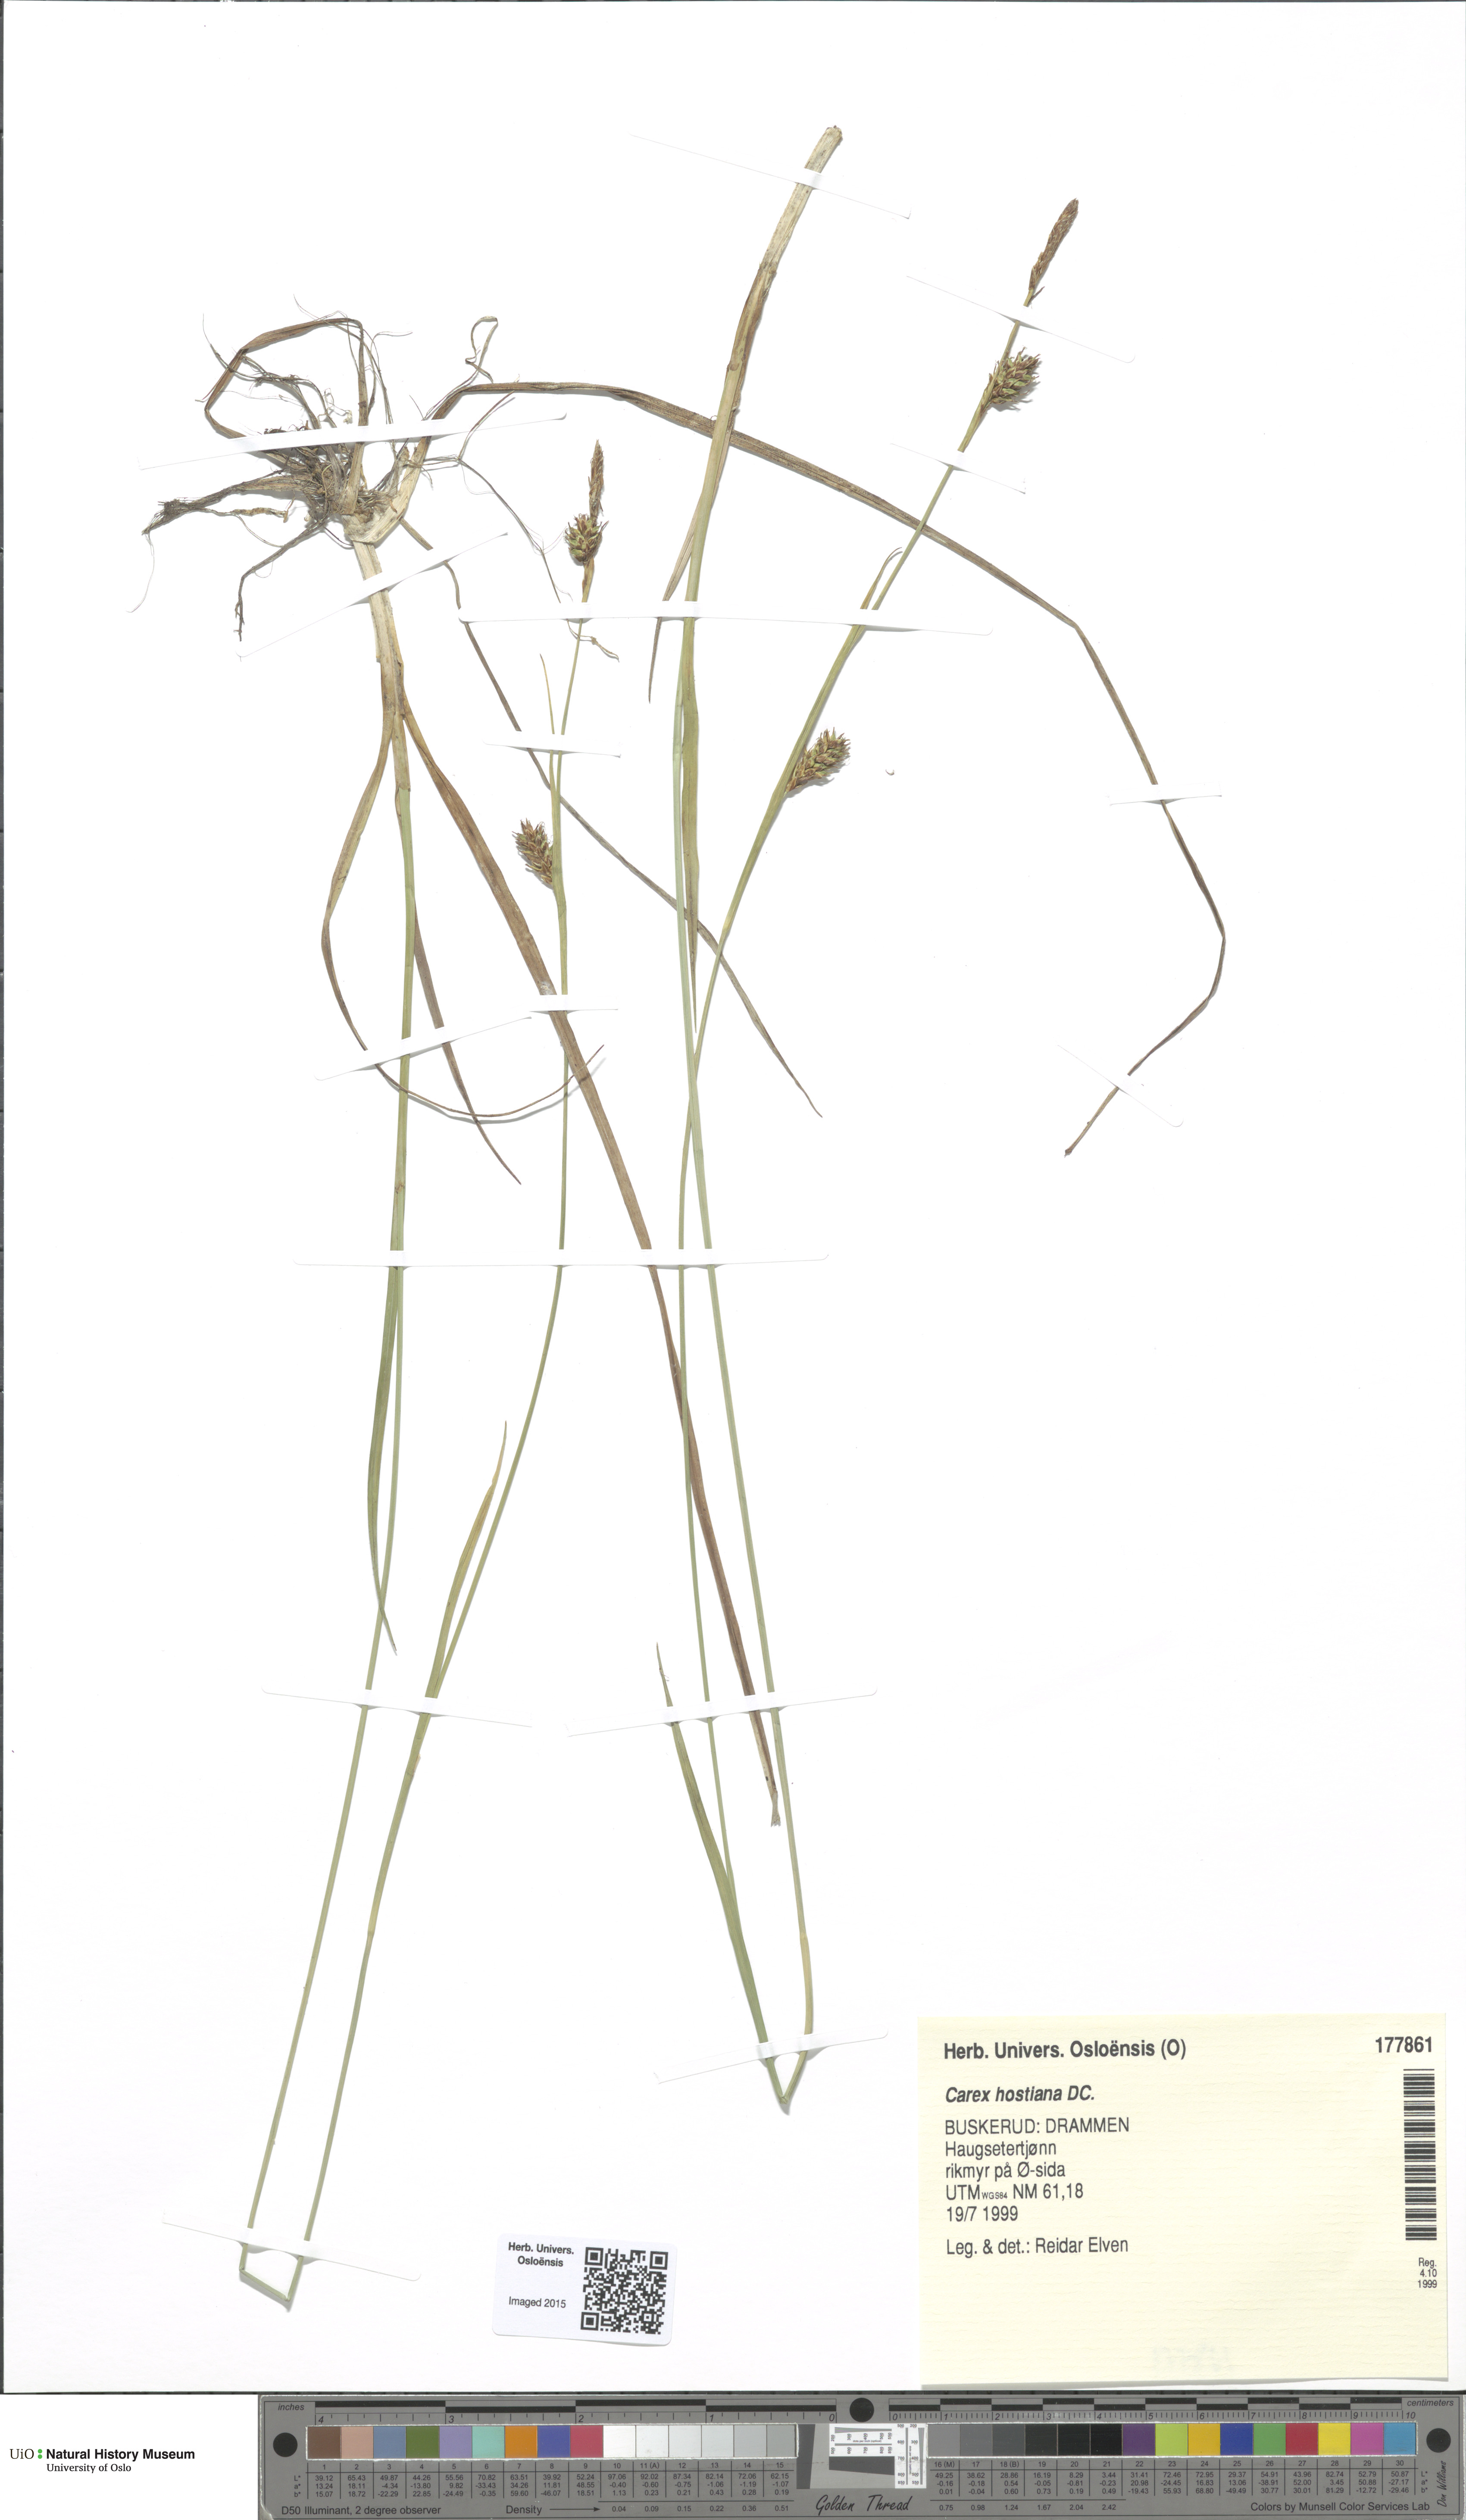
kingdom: Plantae
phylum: Tracheophyta
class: Liliopsida
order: Poales
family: Cyperaceae
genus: Carex
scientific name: Carex hostiana
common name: Tawny sedge
